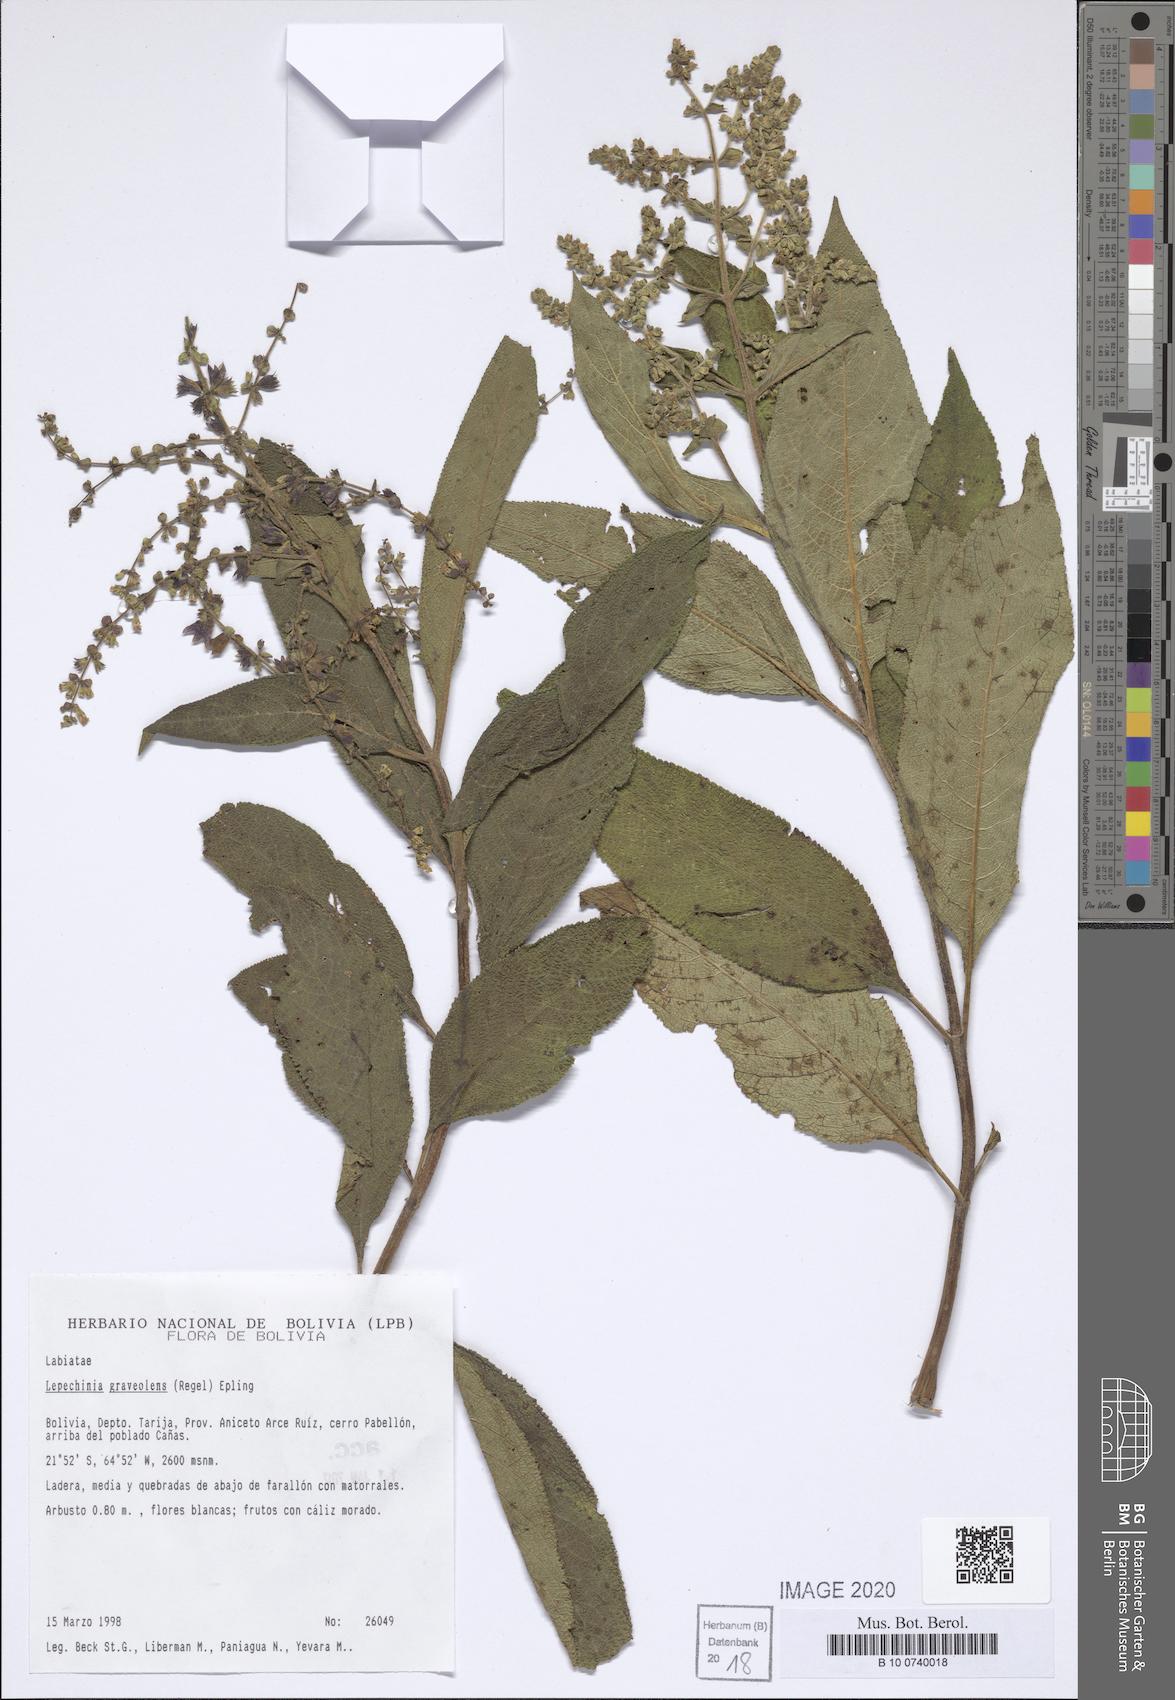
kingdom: Plantae
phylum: Tracheophyta
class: Magnoliopsida
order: Lamiales
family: Lamiaceae
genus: Lepechinia
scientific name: Lepechinia graveolens
